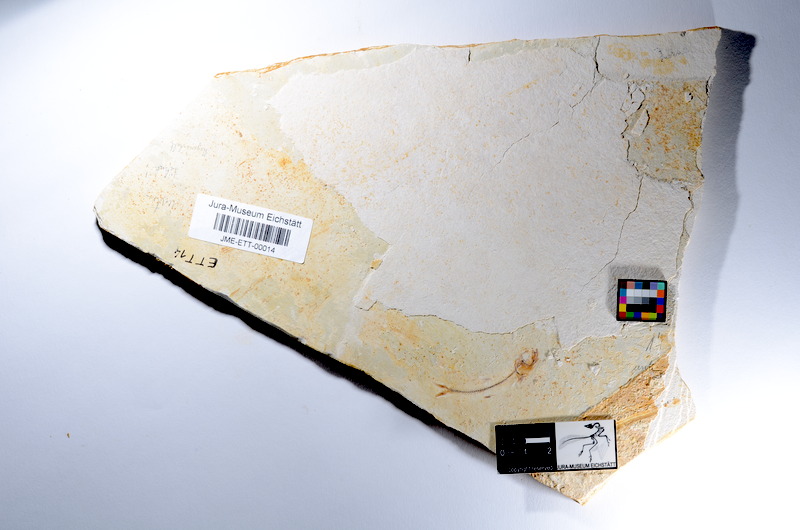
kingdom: Animalia
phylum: Chordata
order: Salmoniformes
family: Orthogonikleithridae
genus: Orthogonikleithrus
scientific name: Orthogonikleithrus hoelli
